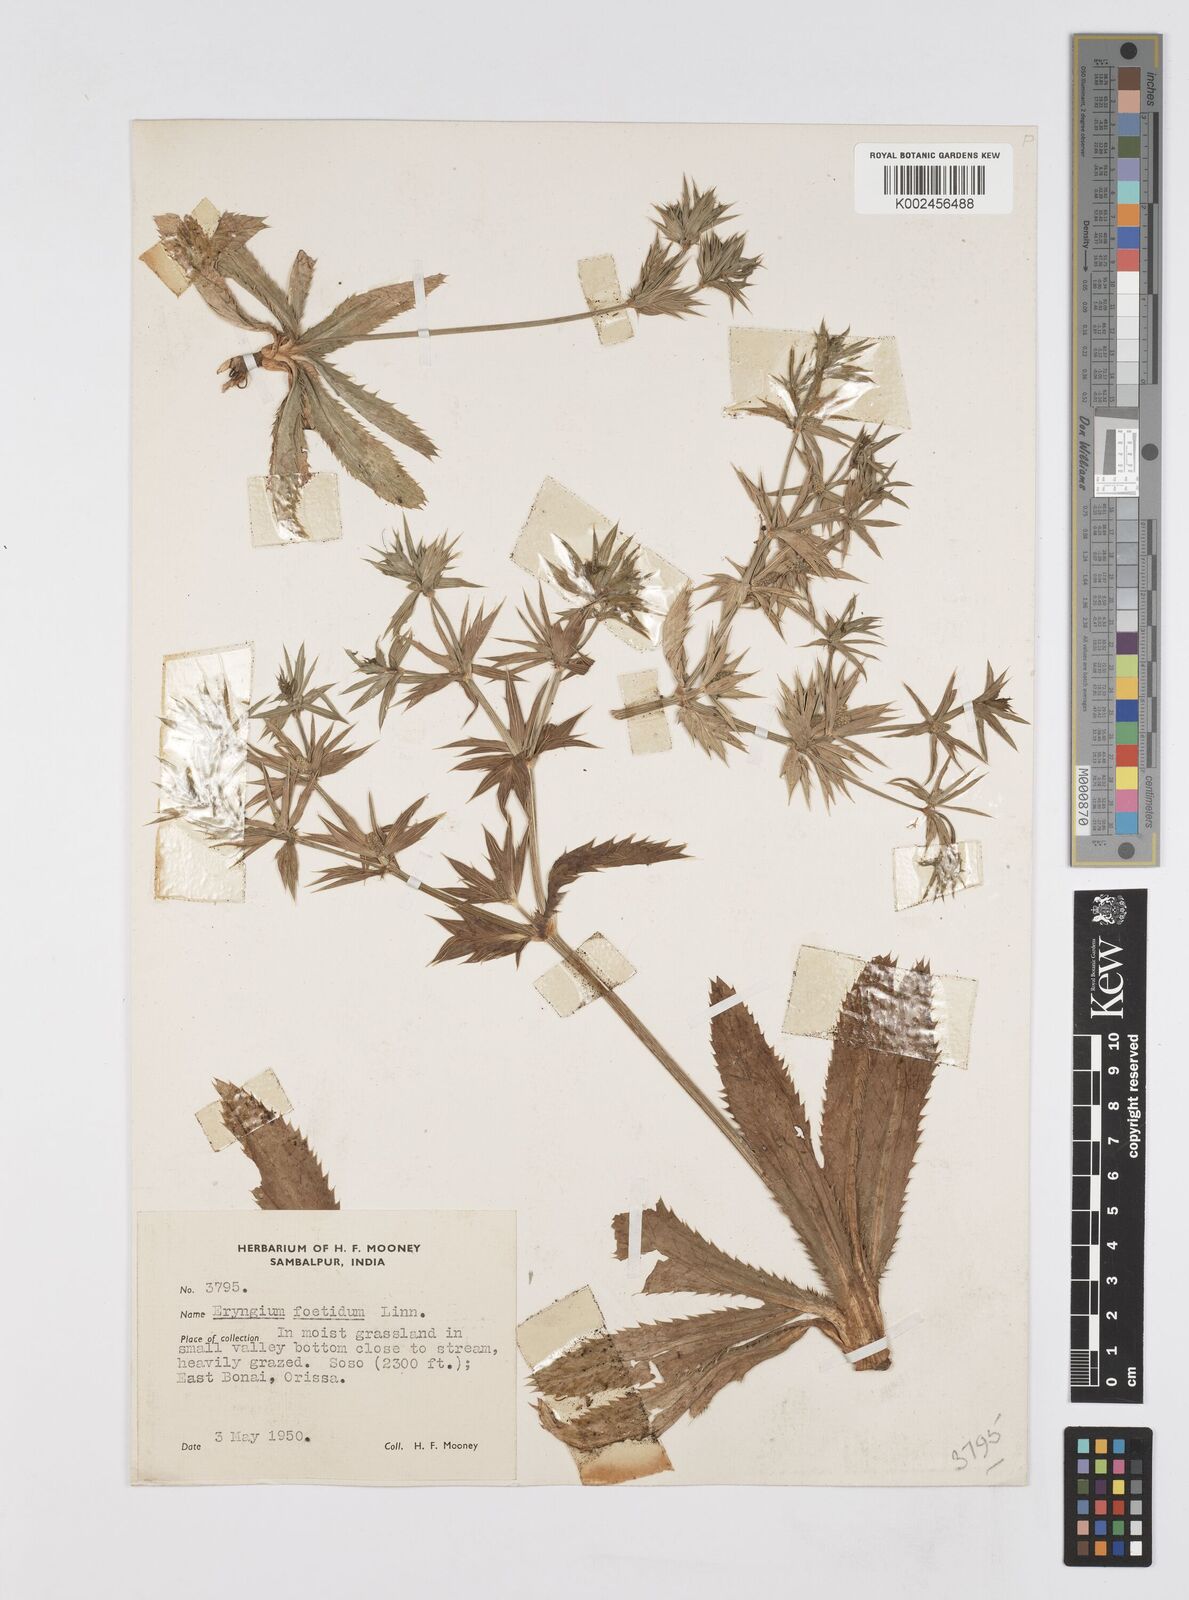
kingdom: Plantae
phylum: Tracheophyta
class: Magnoliopsida
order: Apiales
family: Apiaceae
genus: Eryngium
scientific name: Eryngium foetidum
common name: Fitweed
